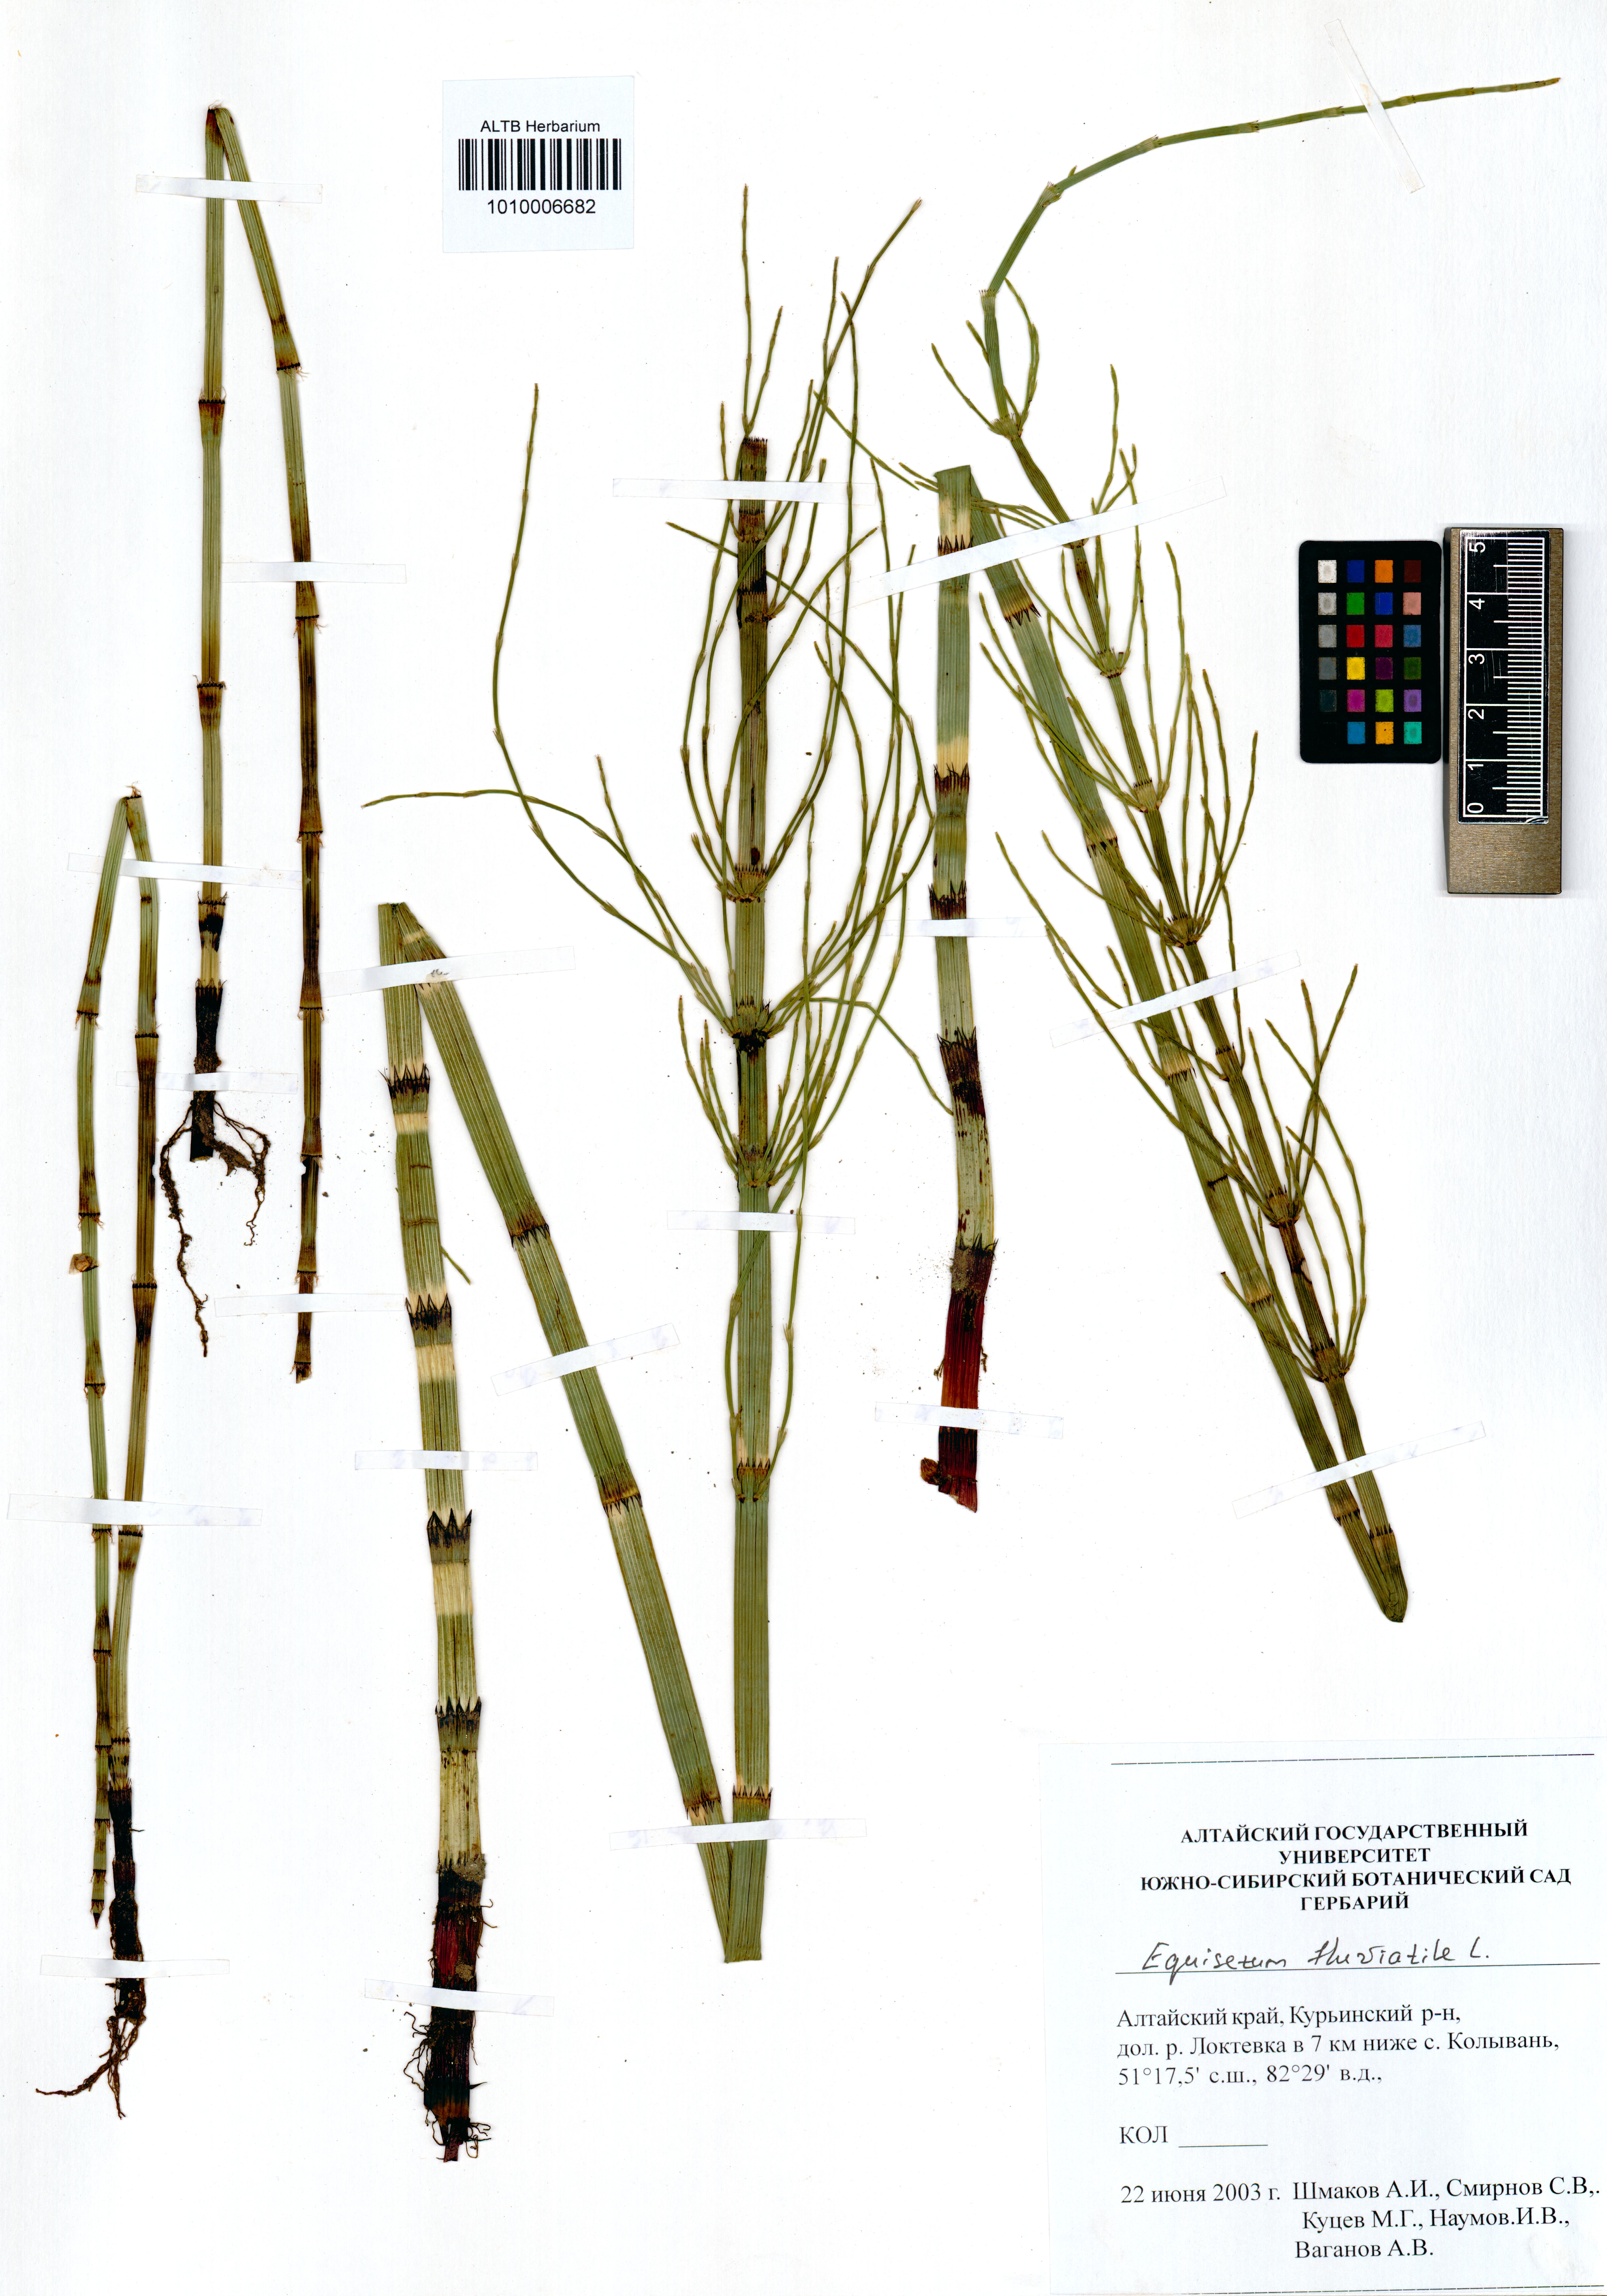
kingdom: Plantae
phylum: Tracheophyta
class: Polypodiopsida
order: Equisetales
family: Equisetaceae
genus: Equisetum
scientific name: Equisetum fluviatile
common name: Water horsetail
